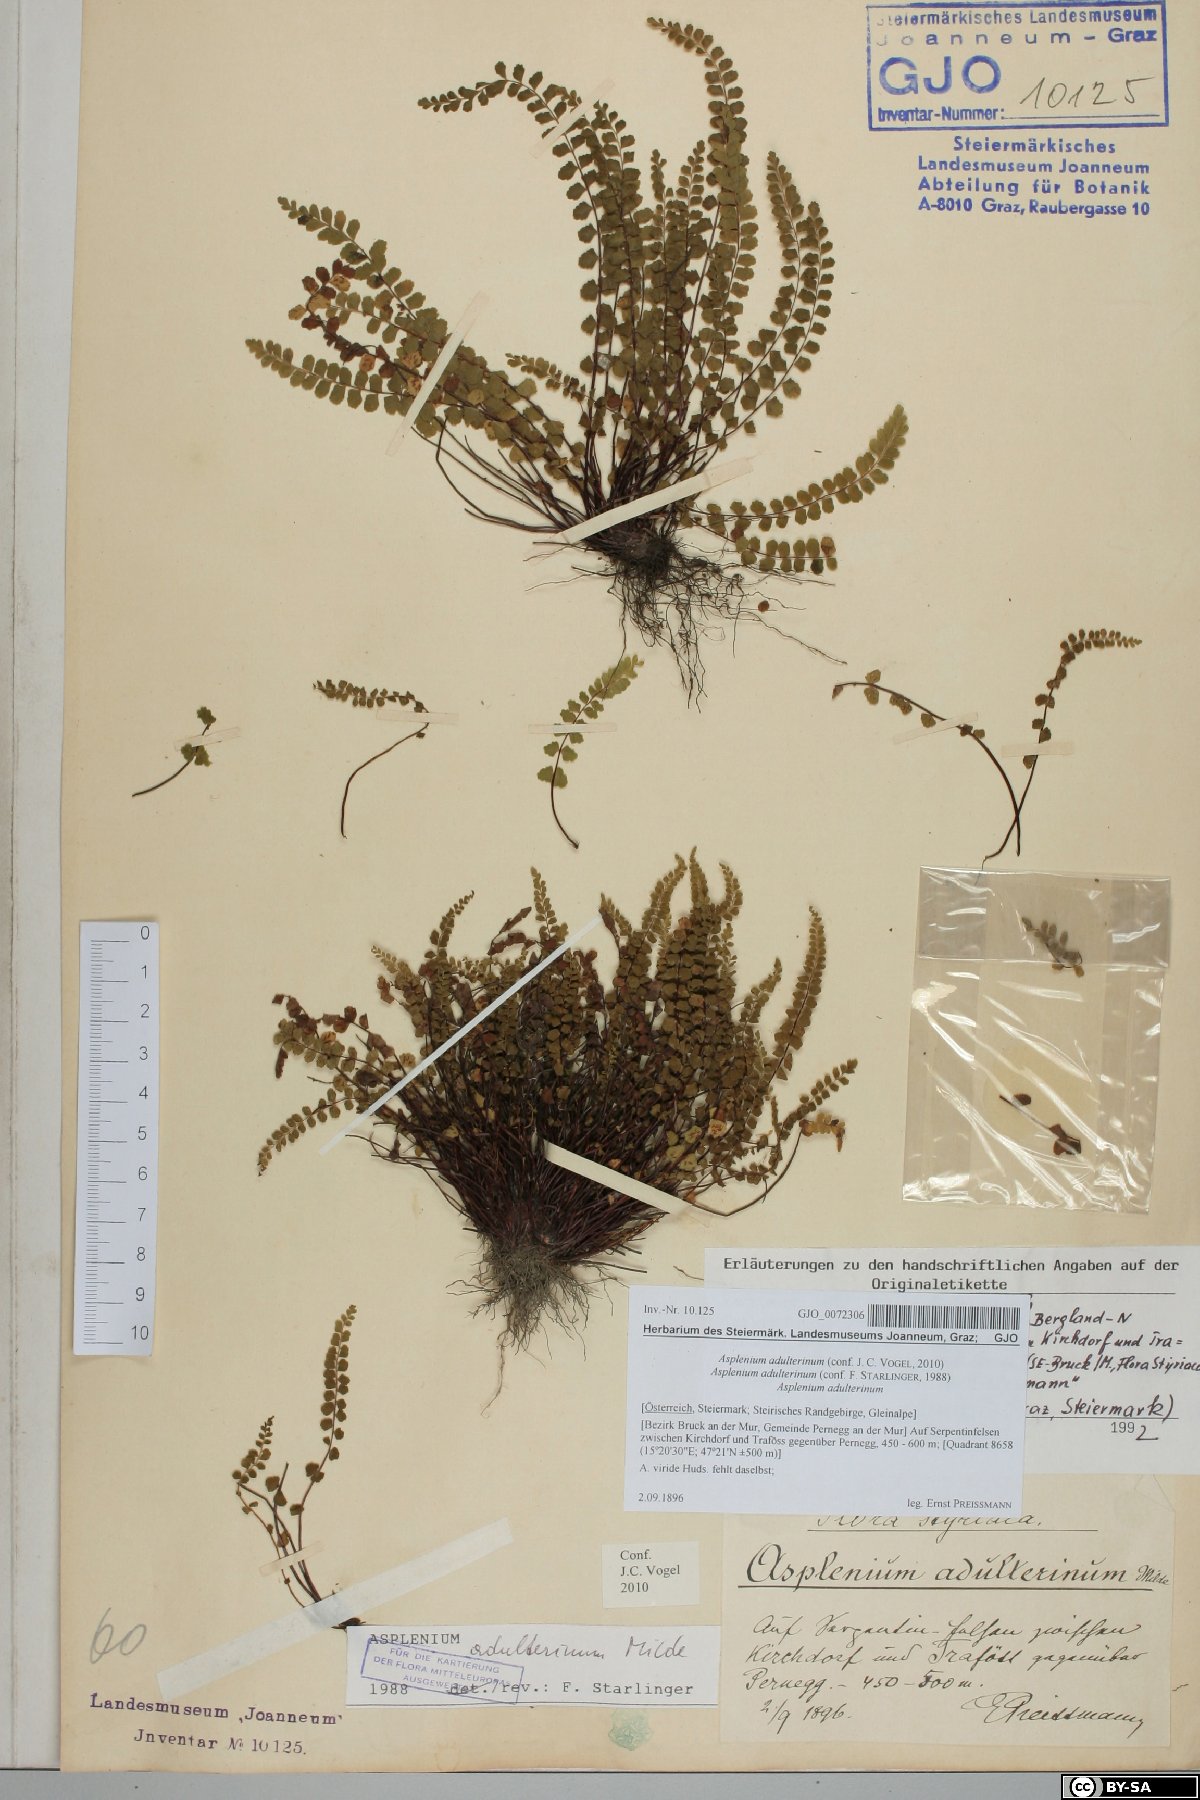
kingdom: Plantae
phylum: Tracheophyta
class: Polypodiopsida
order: Polypodiales
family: Aspleniaceae
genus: Asplenium
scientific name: Asplenium adulterinum
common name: Adulterated spleenwort
